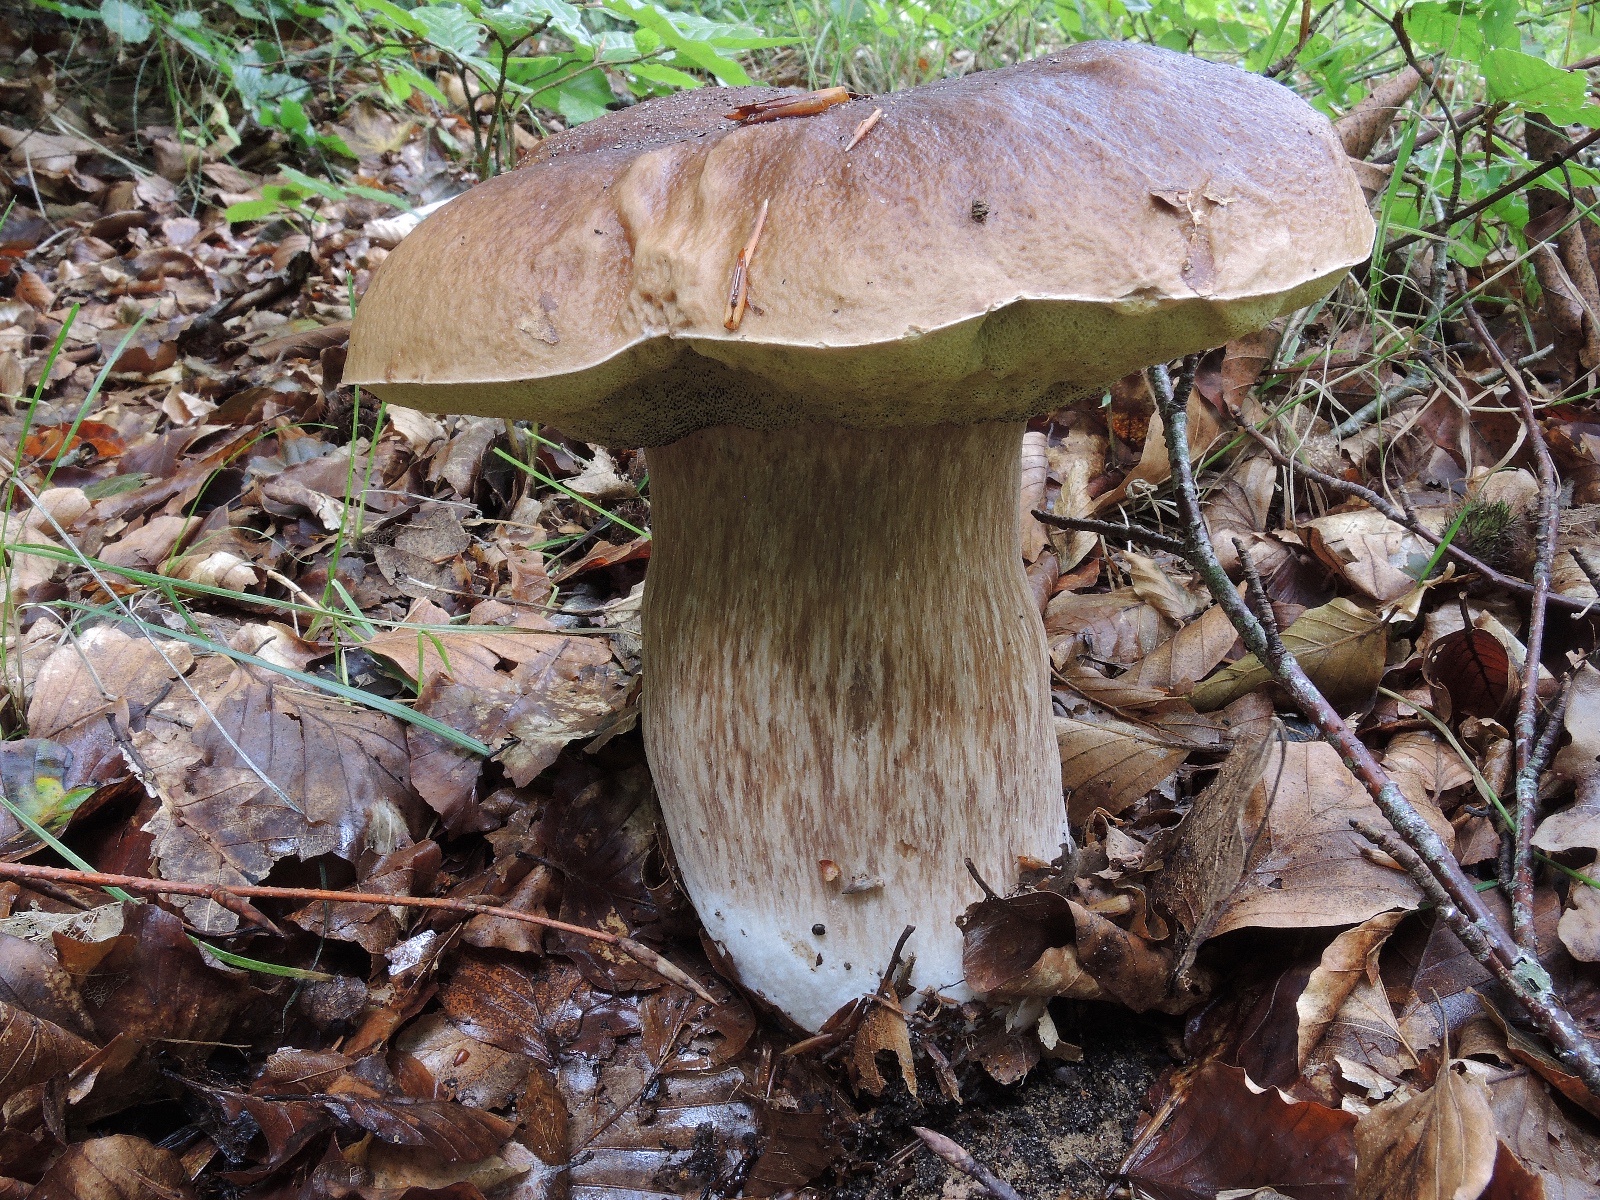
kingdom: Fungi
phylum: Basidiomycota
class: Agaricomycetes
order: Boletales
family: Boletaceae
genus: Boletus
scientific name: Boletus edulis
